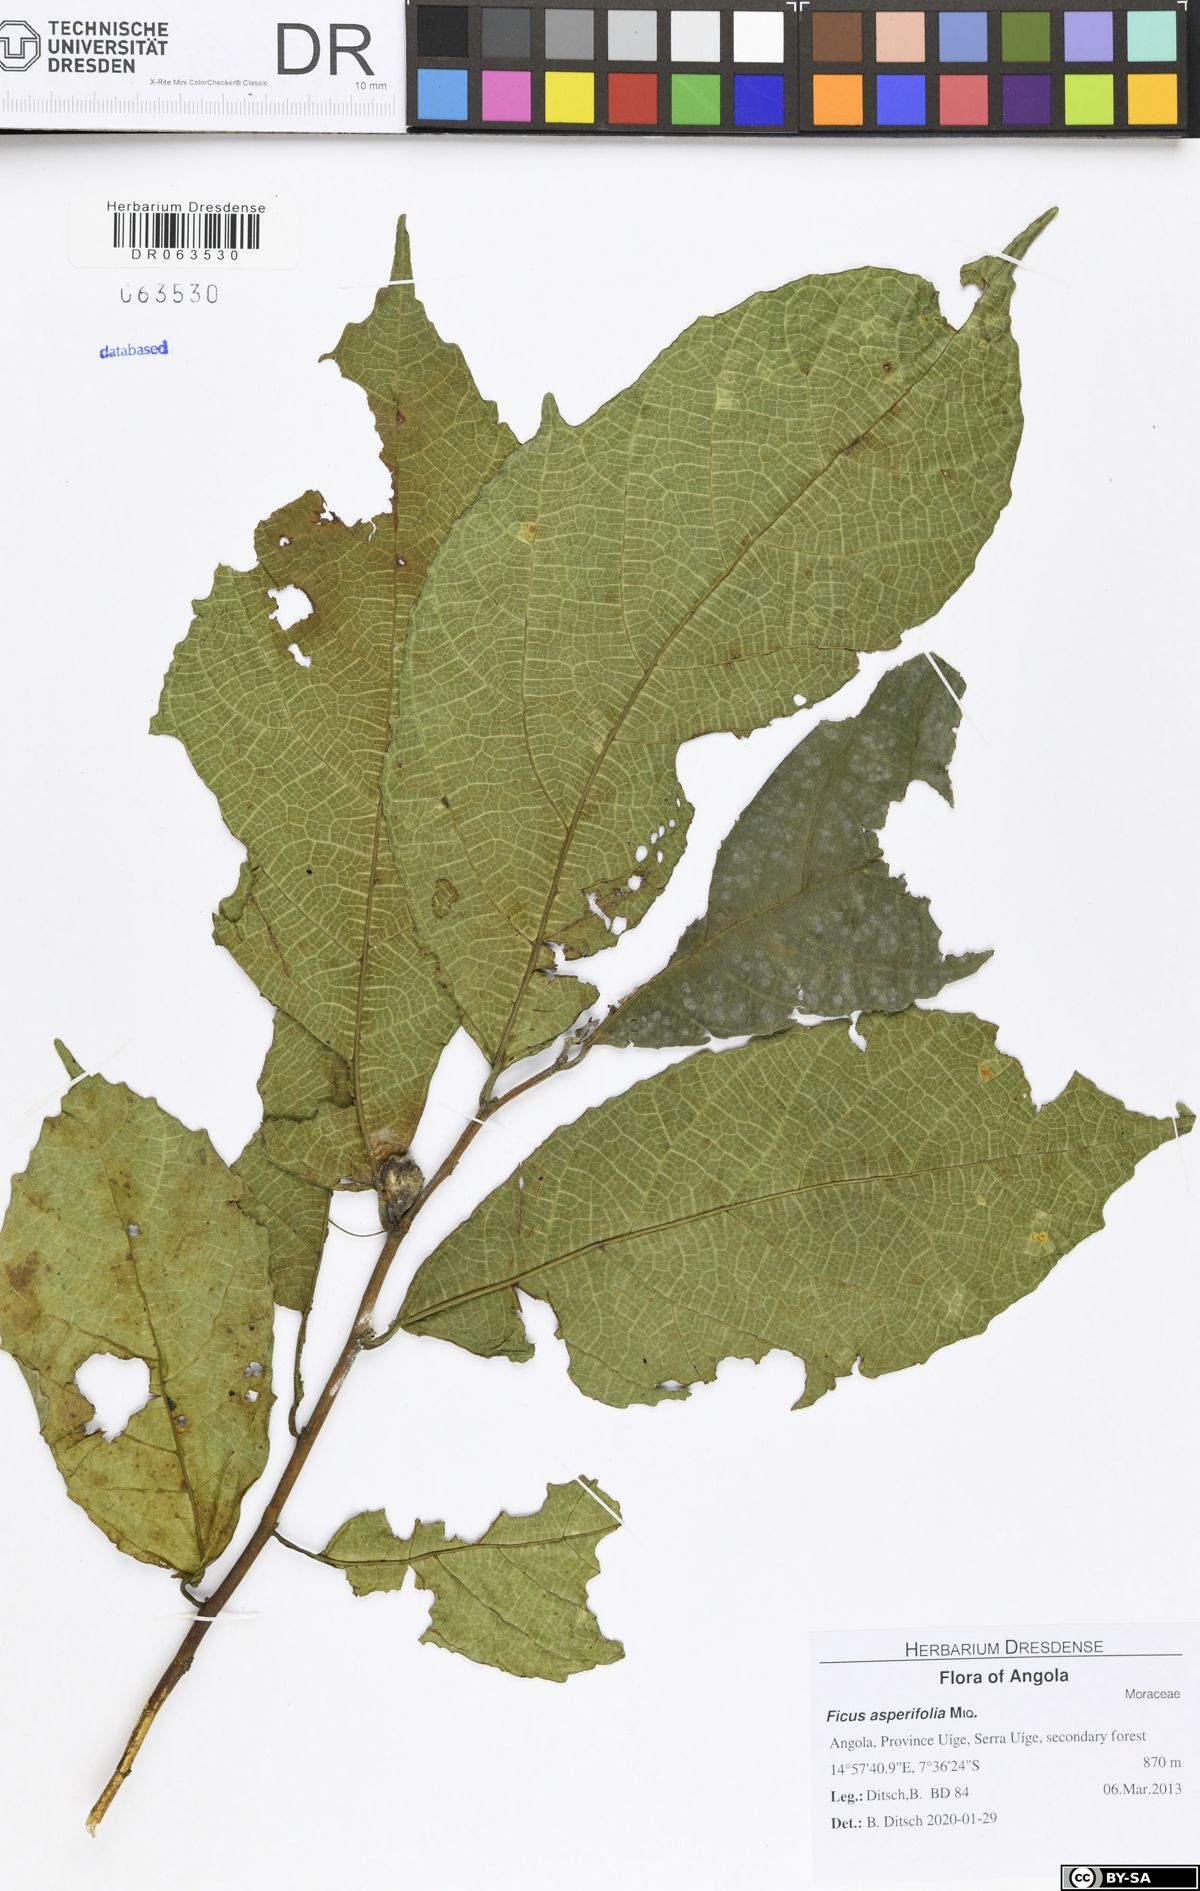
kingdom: Plantae
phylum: Tracheophyta
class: Magnoliopsida
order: Rosales
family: Moraceae
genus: Ficus
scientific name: Ficus asperifolia
